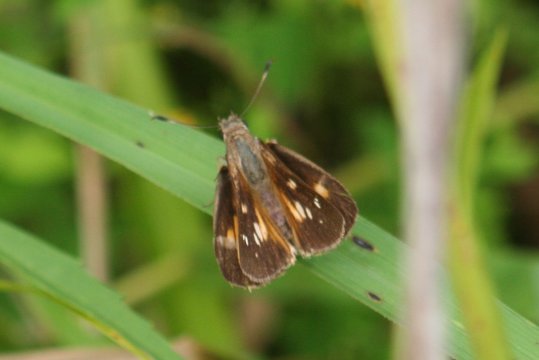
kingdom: Animalia
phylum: Arthropoda
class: Insecta
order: Lepidoptera
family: Hesperiidae
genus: Poanes
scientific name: Poanes viator
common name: Broad-winged Skipper
